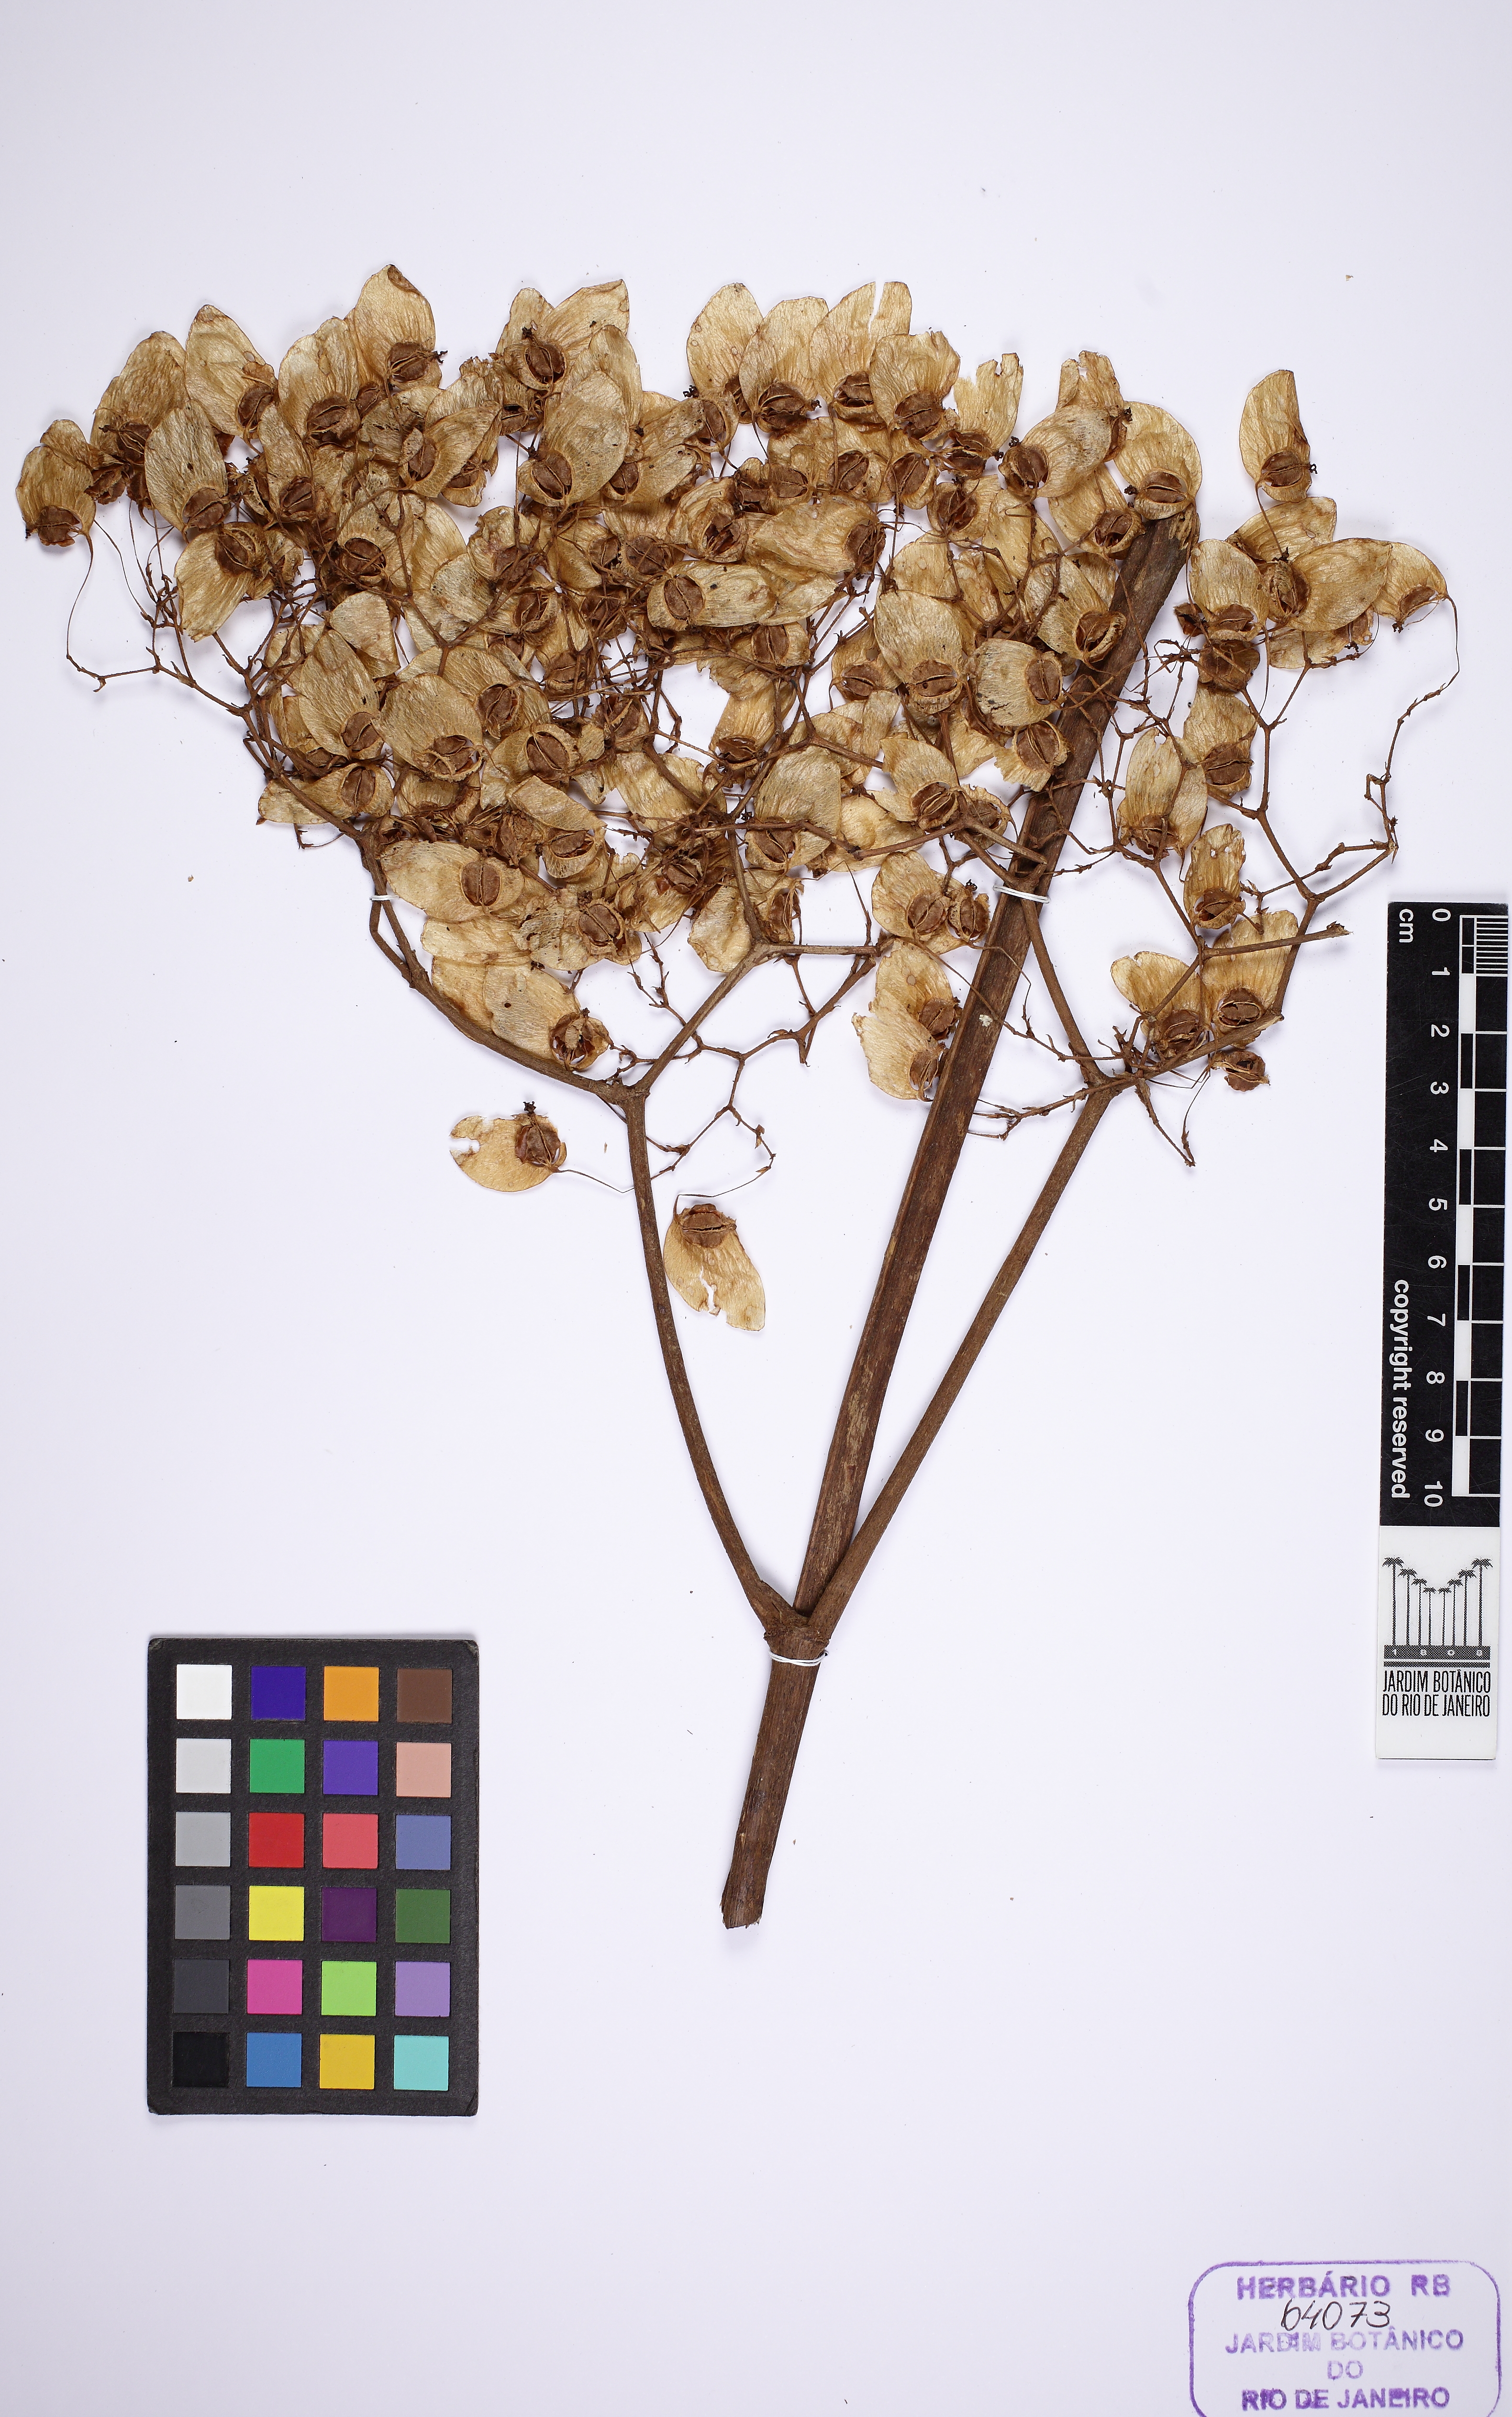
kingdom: Plantae
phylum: Tracheophyta
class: Magnoliopsida
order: Cucurbitales
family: Begoniaceae
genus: Begonia
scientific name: Begonia paleata
